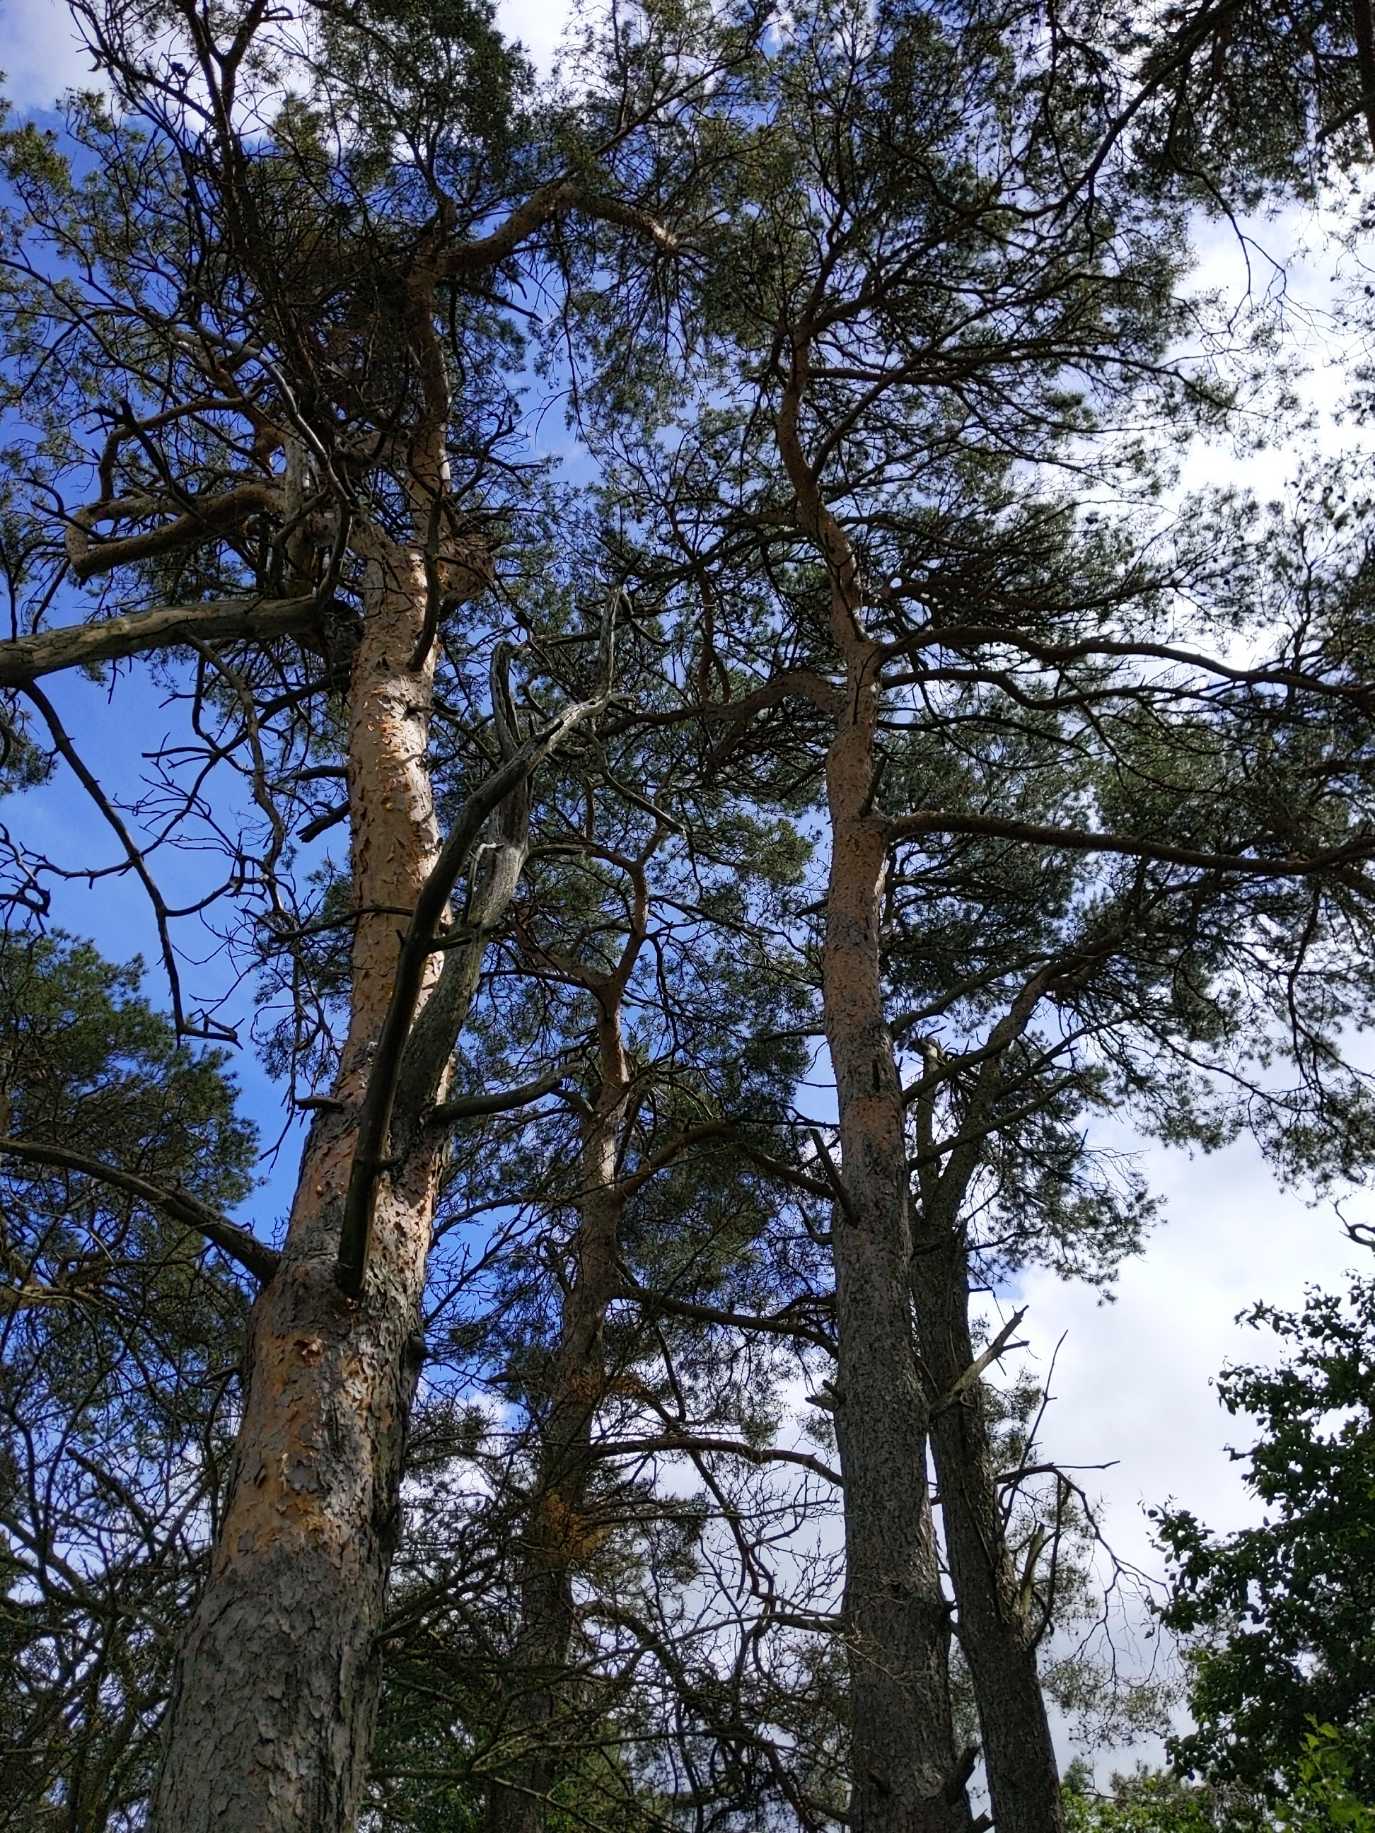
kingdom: Plantae
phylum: Tracheophyta
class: Pinopsida
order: Pinales
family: Pinaceae
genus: Pinus
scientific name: Pinus sylvestris
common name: Skov-fyr
